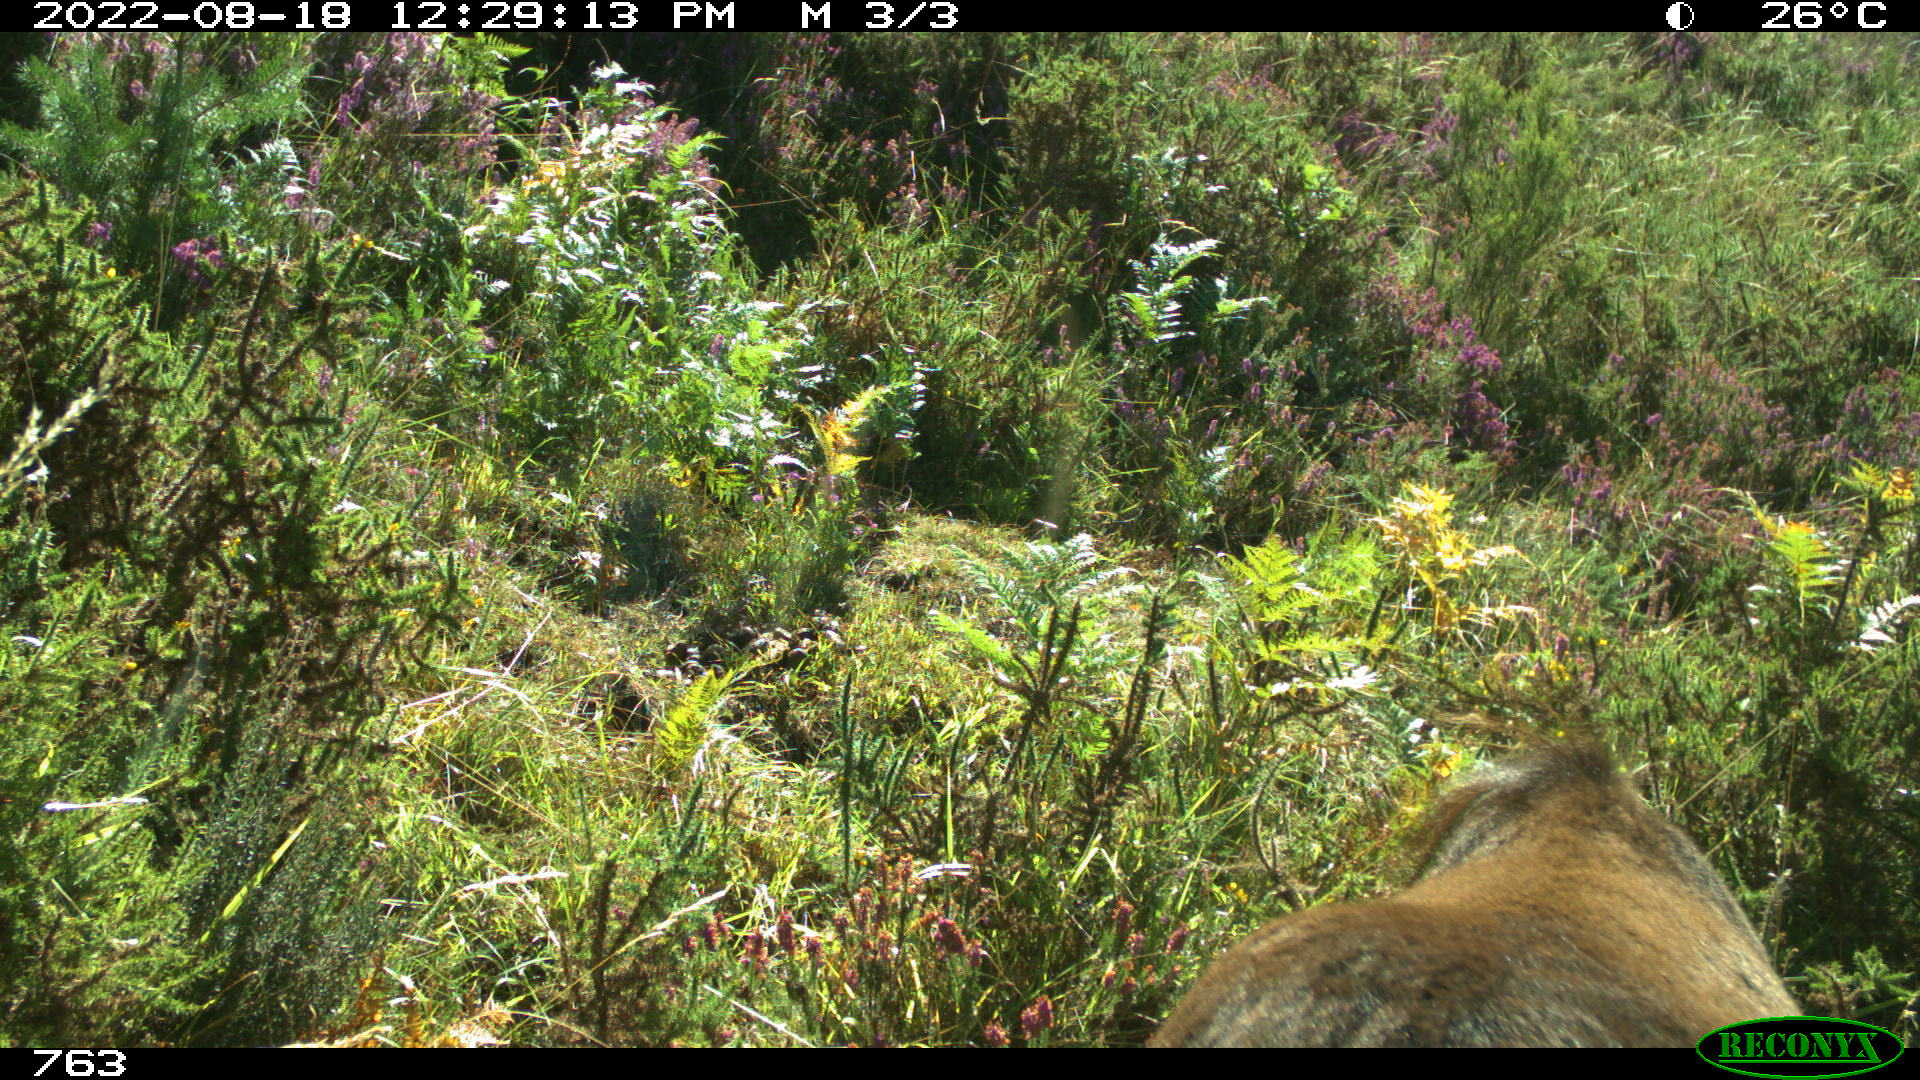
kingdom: Animalia
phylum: Chordata
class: Mammalia
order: Perissodactyla
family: Equidae
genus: Equus
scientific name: Equus caballus
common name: Horse
